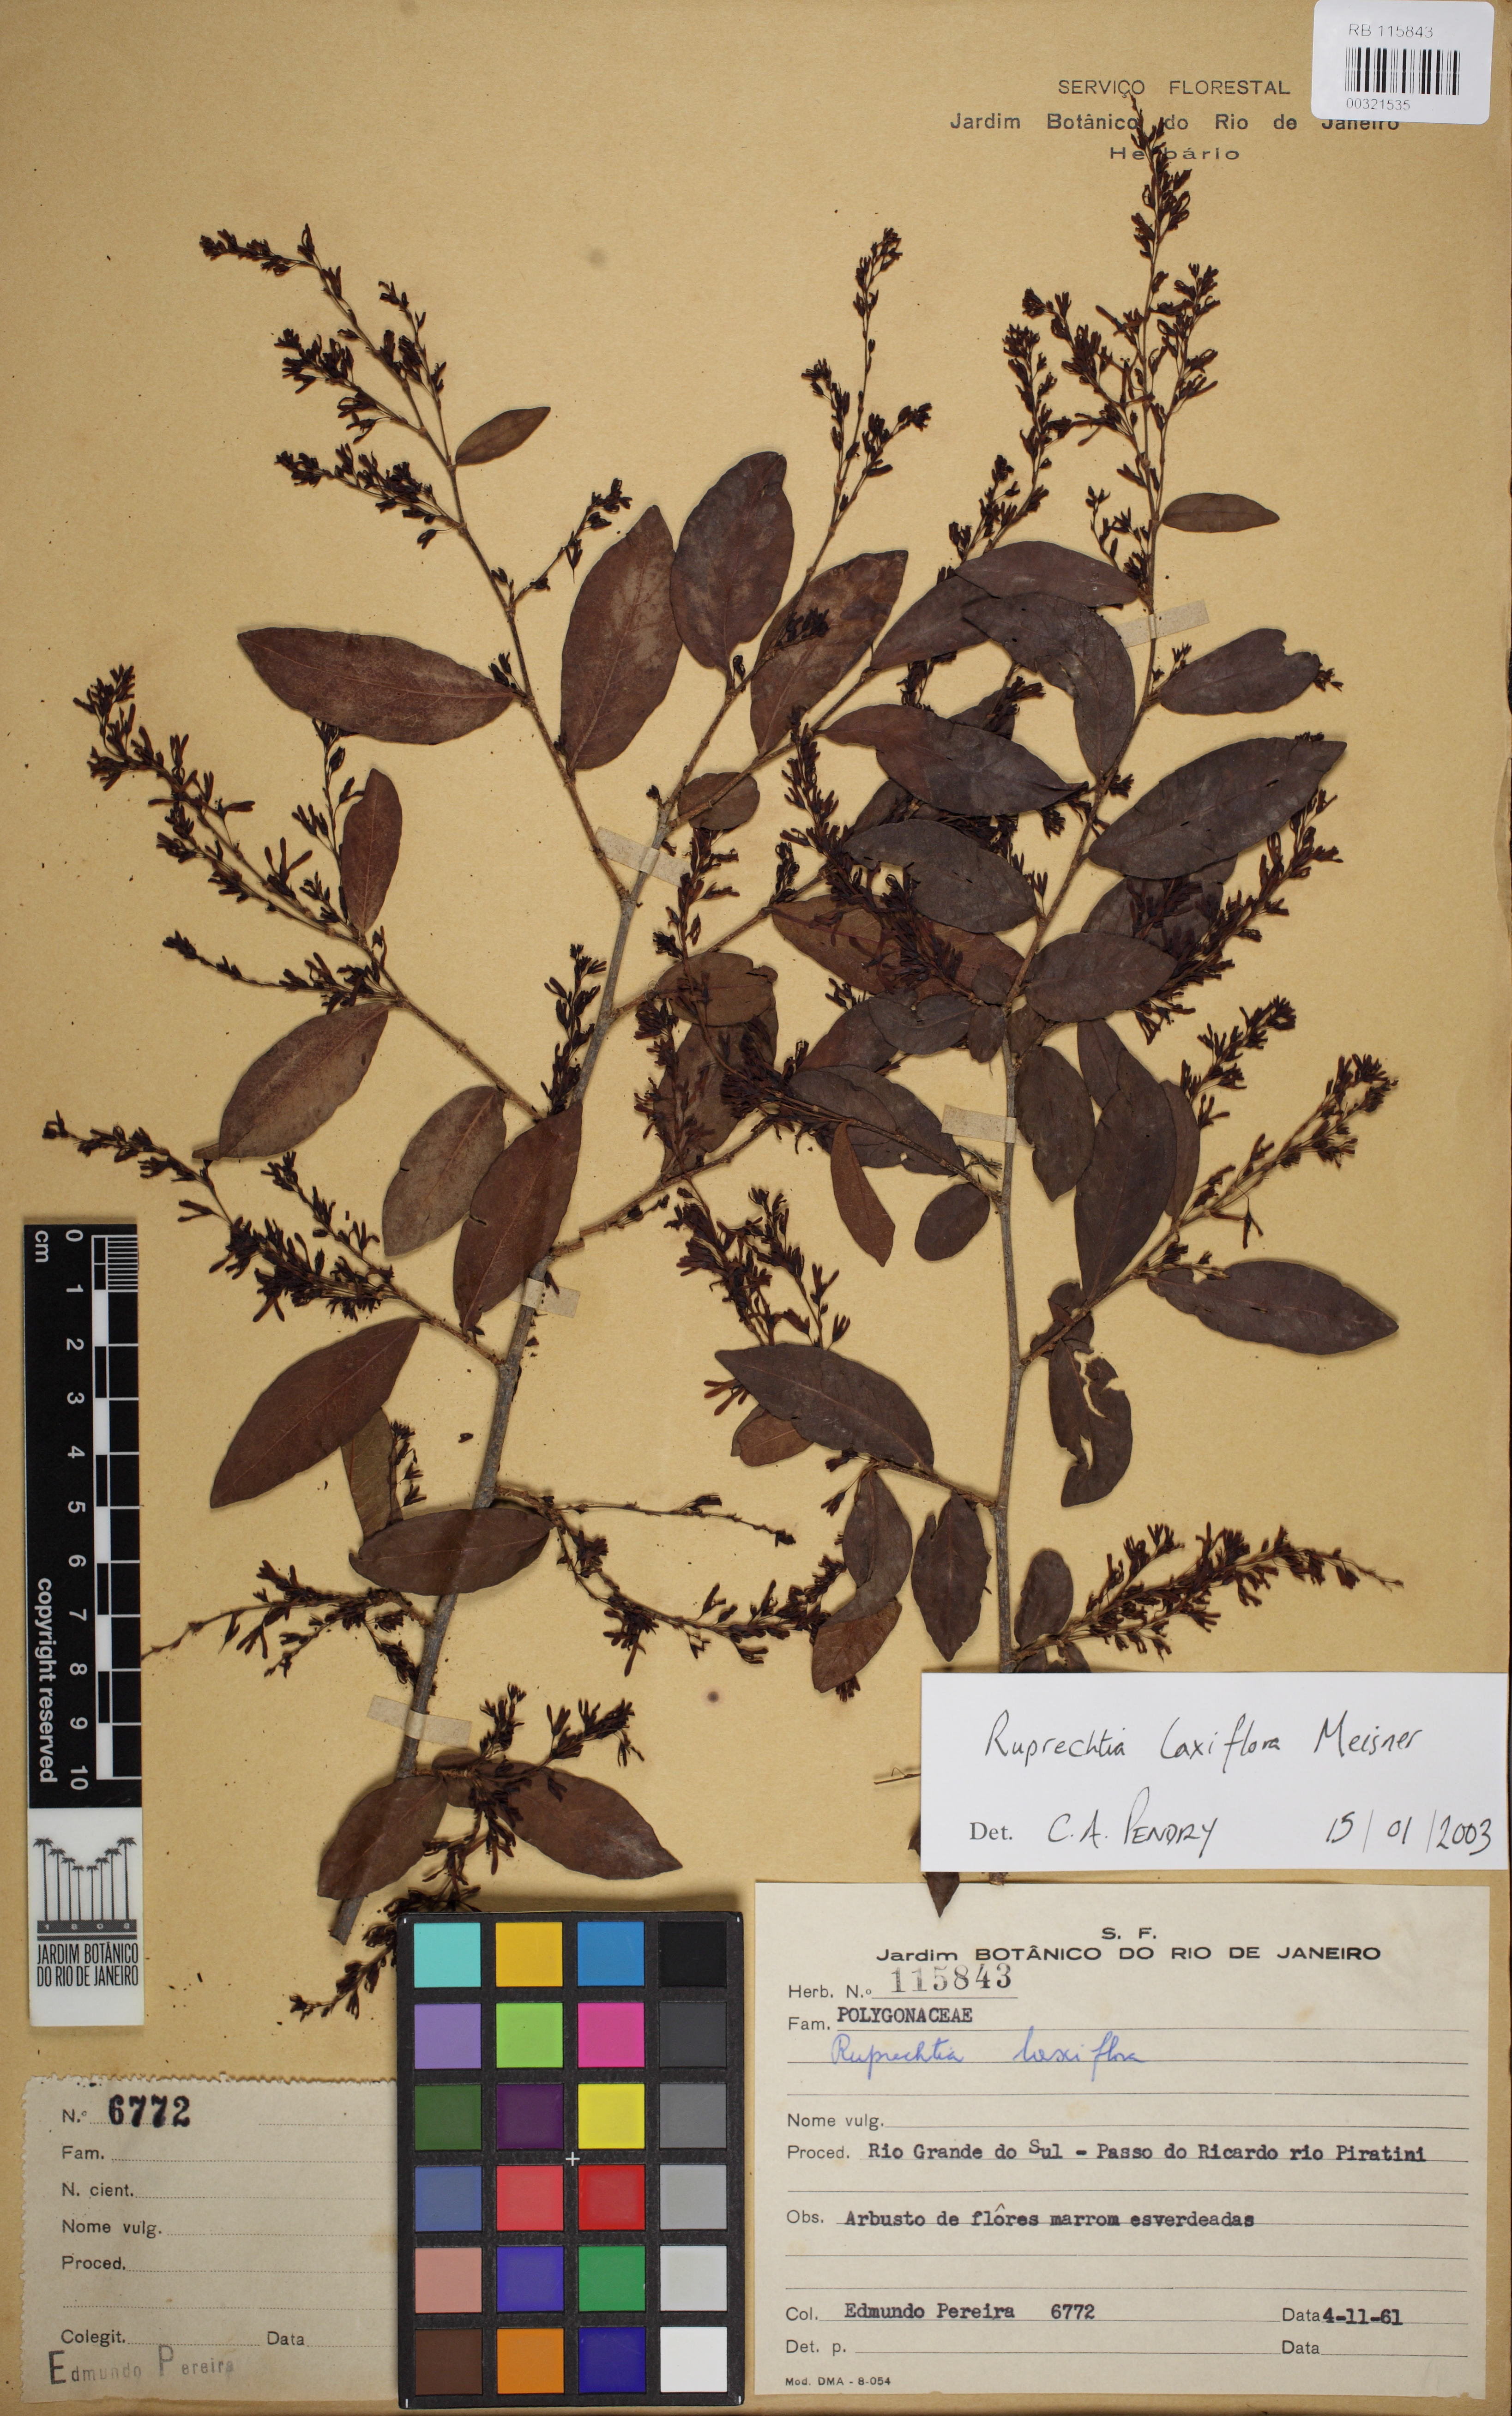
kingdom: Plantae
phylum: Tracheophyta
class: Magnoliopsida
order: Caryophyllales
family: Polygonaceae
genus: Ruprechtia
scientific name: Ruprechtia laxiflora
